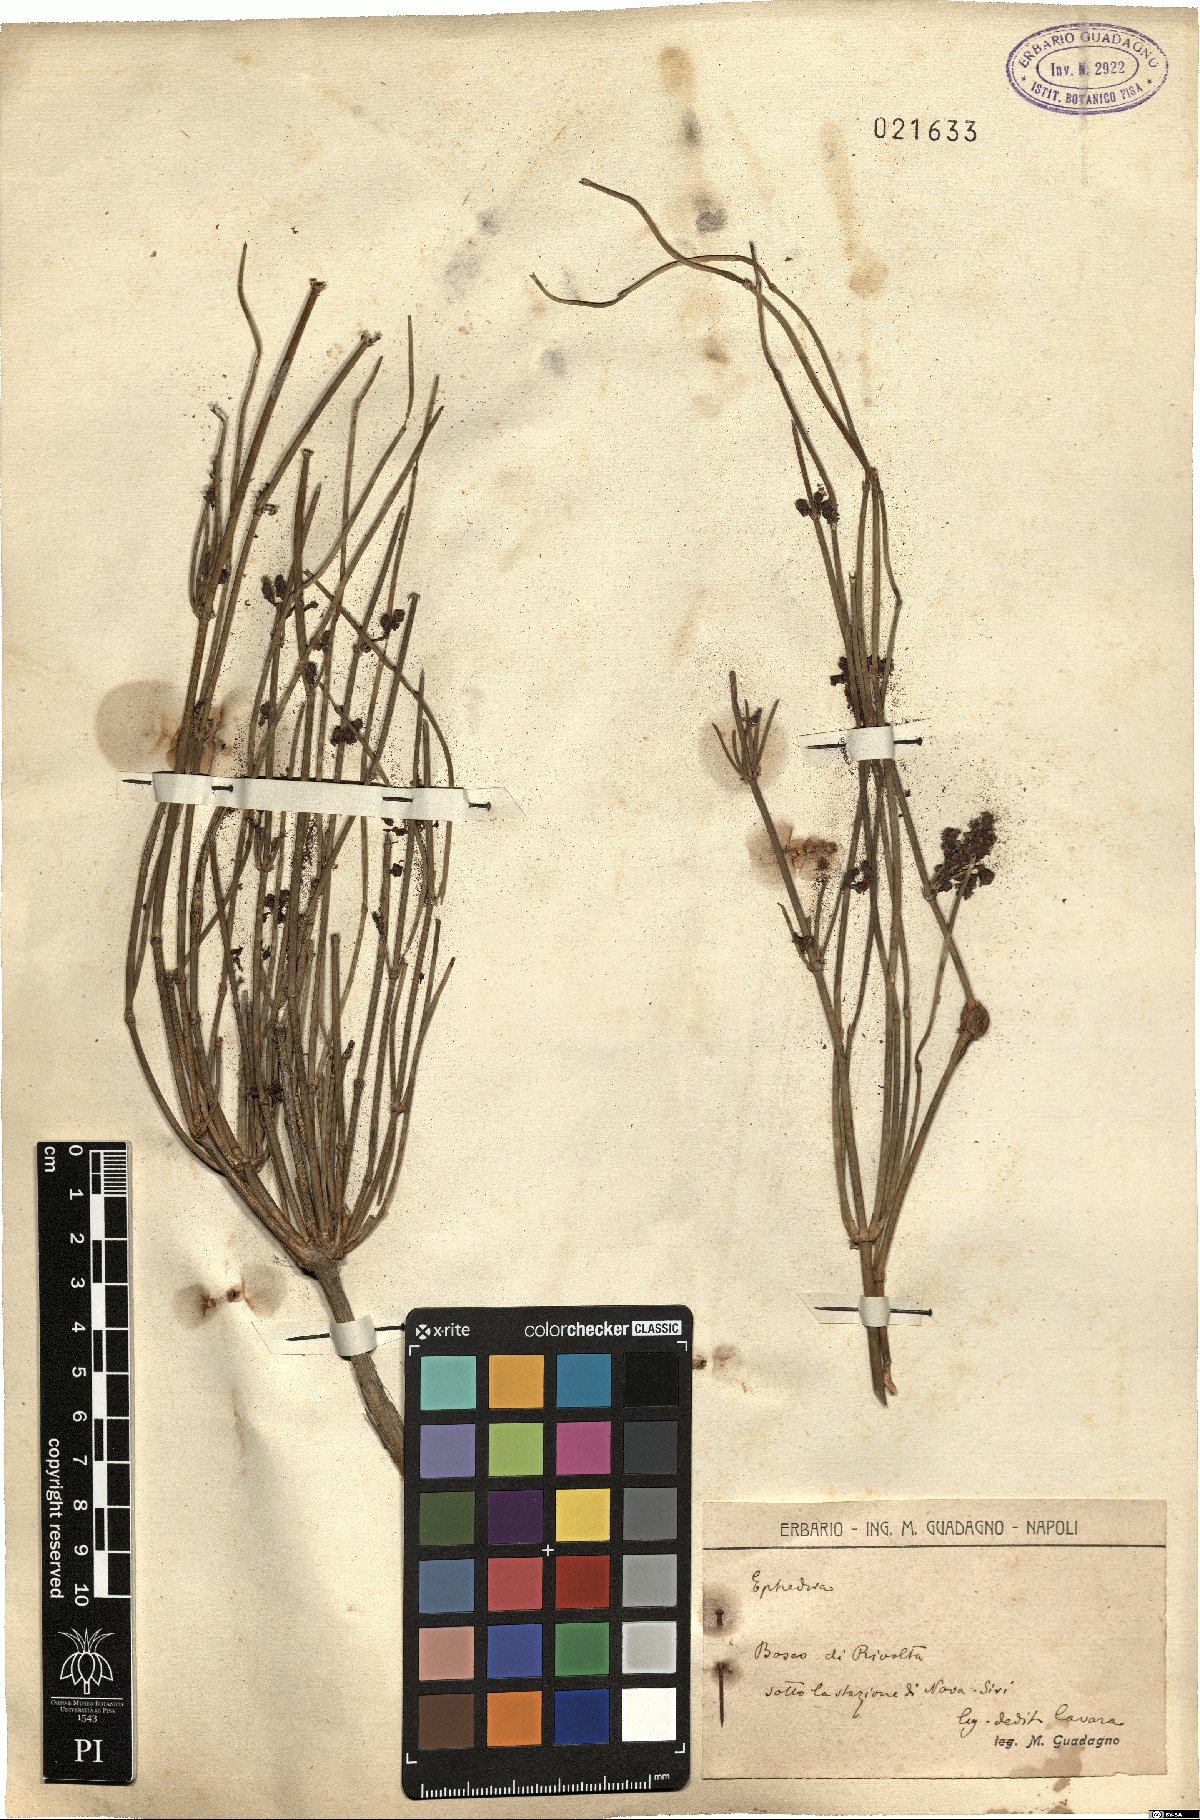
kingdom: Plantae
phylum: Tracheophyta
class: Gnetopsida
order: Ephedrales
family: Ephedraceae
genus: Ephedra
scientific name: Ephedra
